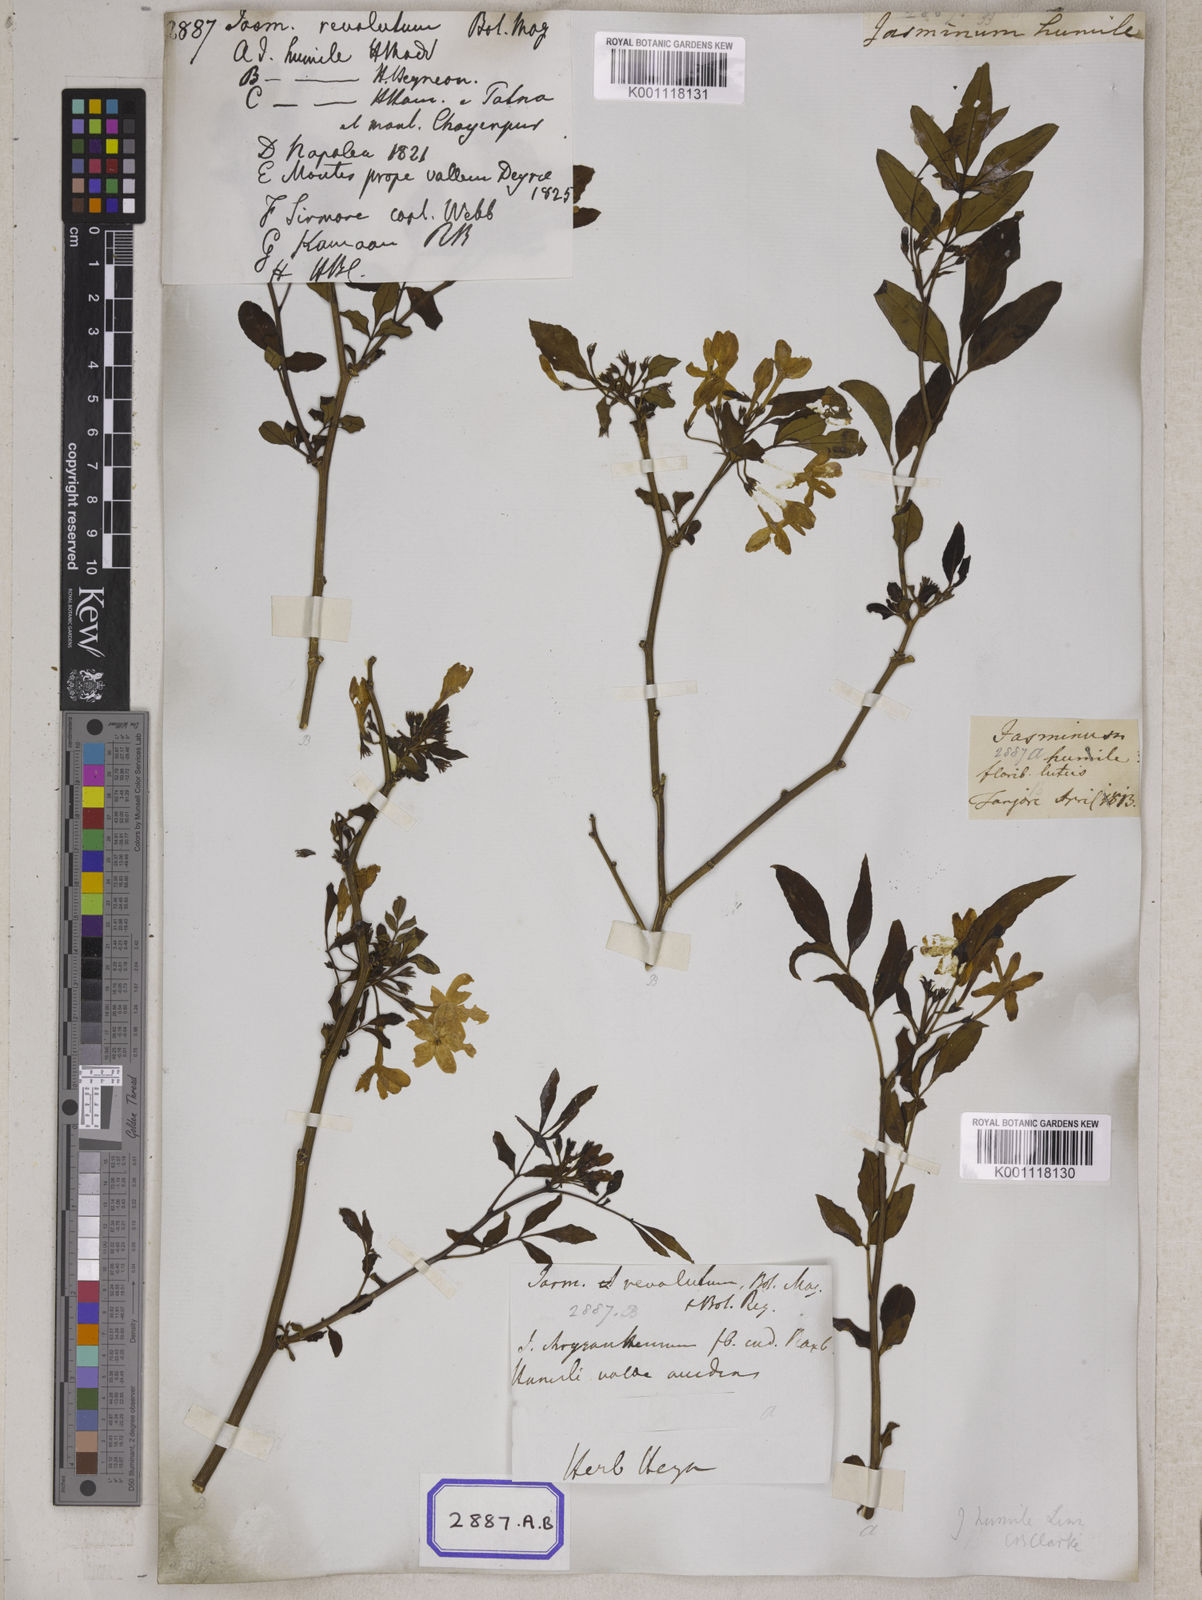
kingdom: Plantae
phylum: Tracheophyta
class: Magnoliopsida
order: Lamiales
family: Oleaceae
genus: Chrysojasminum
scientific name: Chrysojasminum humile
